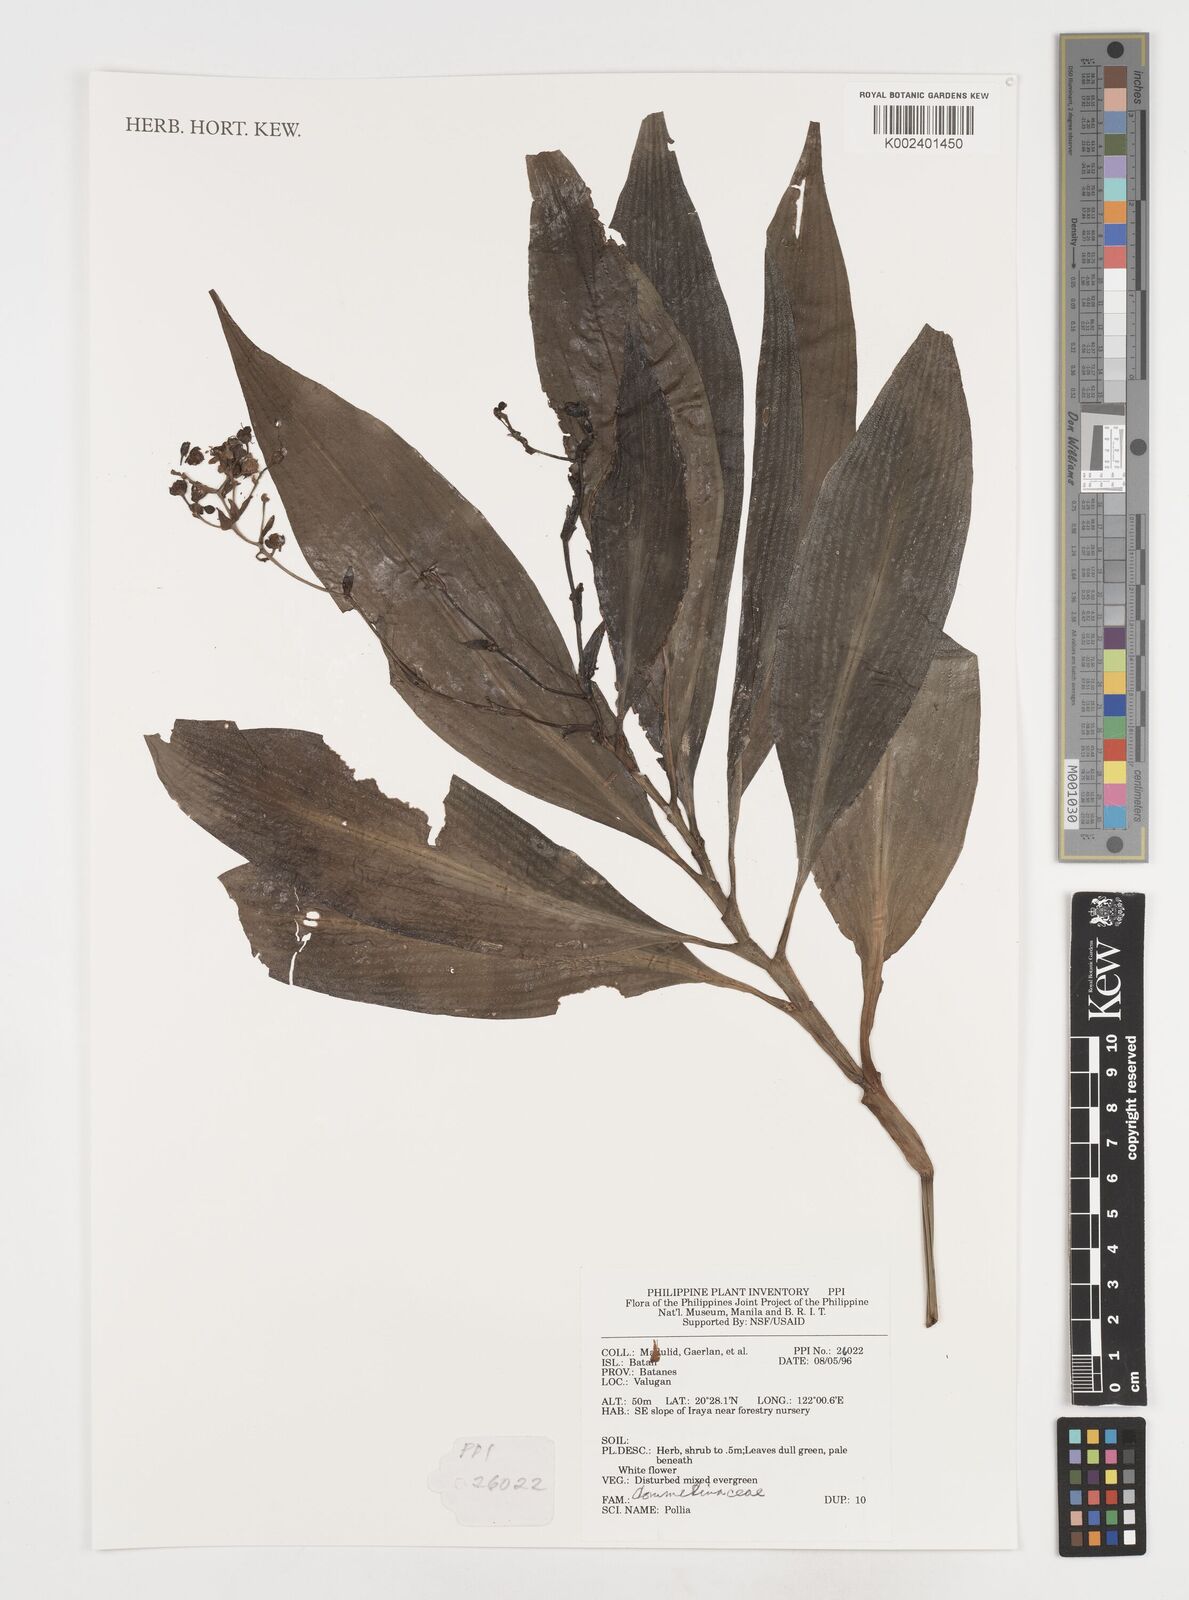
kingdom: Plantae
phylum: Tracheophyta
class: Liliopsida
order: Commelinales
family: Commelinaceae
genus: Pollia
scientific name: Pollia
